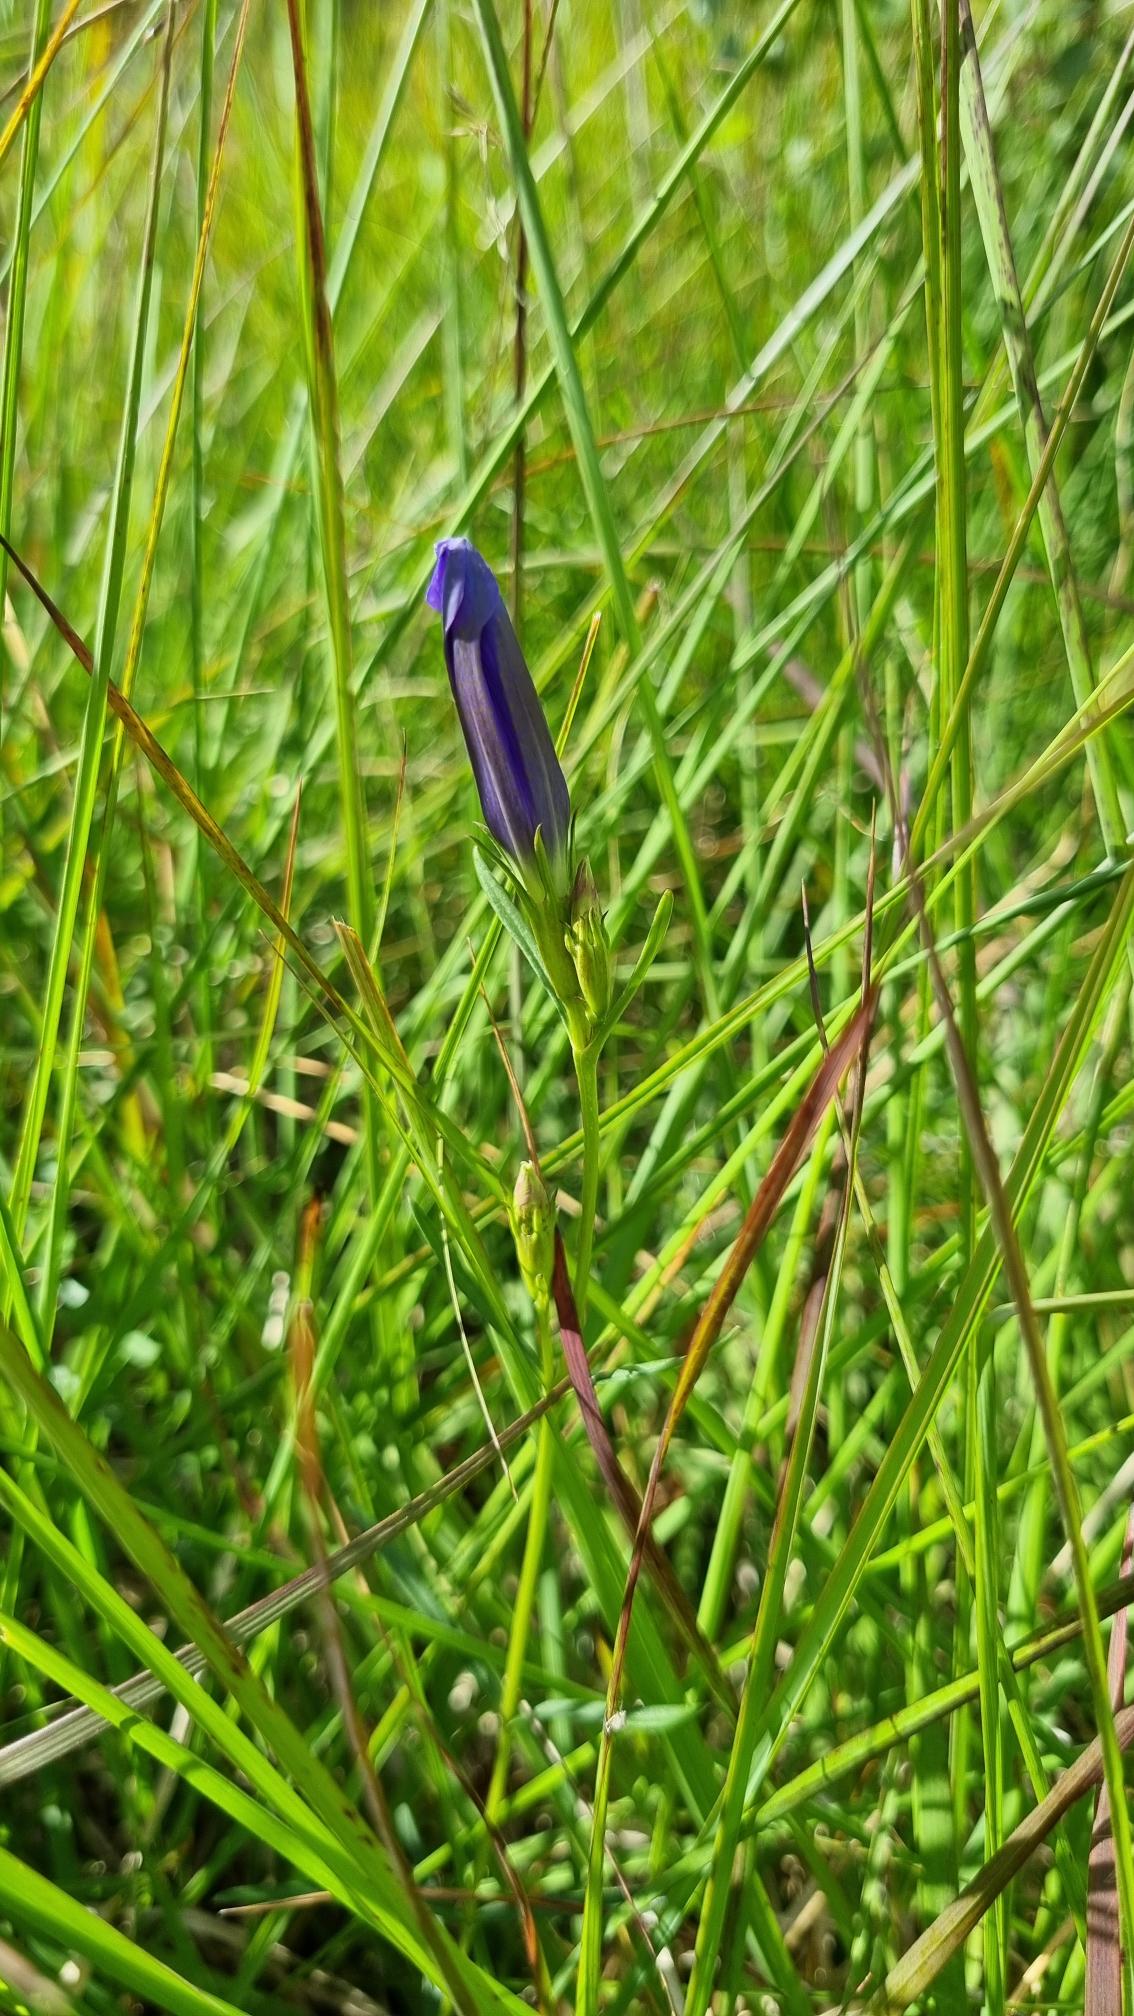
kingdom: Plantae
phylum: Tracheophyta
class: Magnoliopsida
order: Gentianales
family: Gentianaceae
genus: Gentiana
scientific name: Gentiana pneumonanthe
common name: Klokke-ensian
